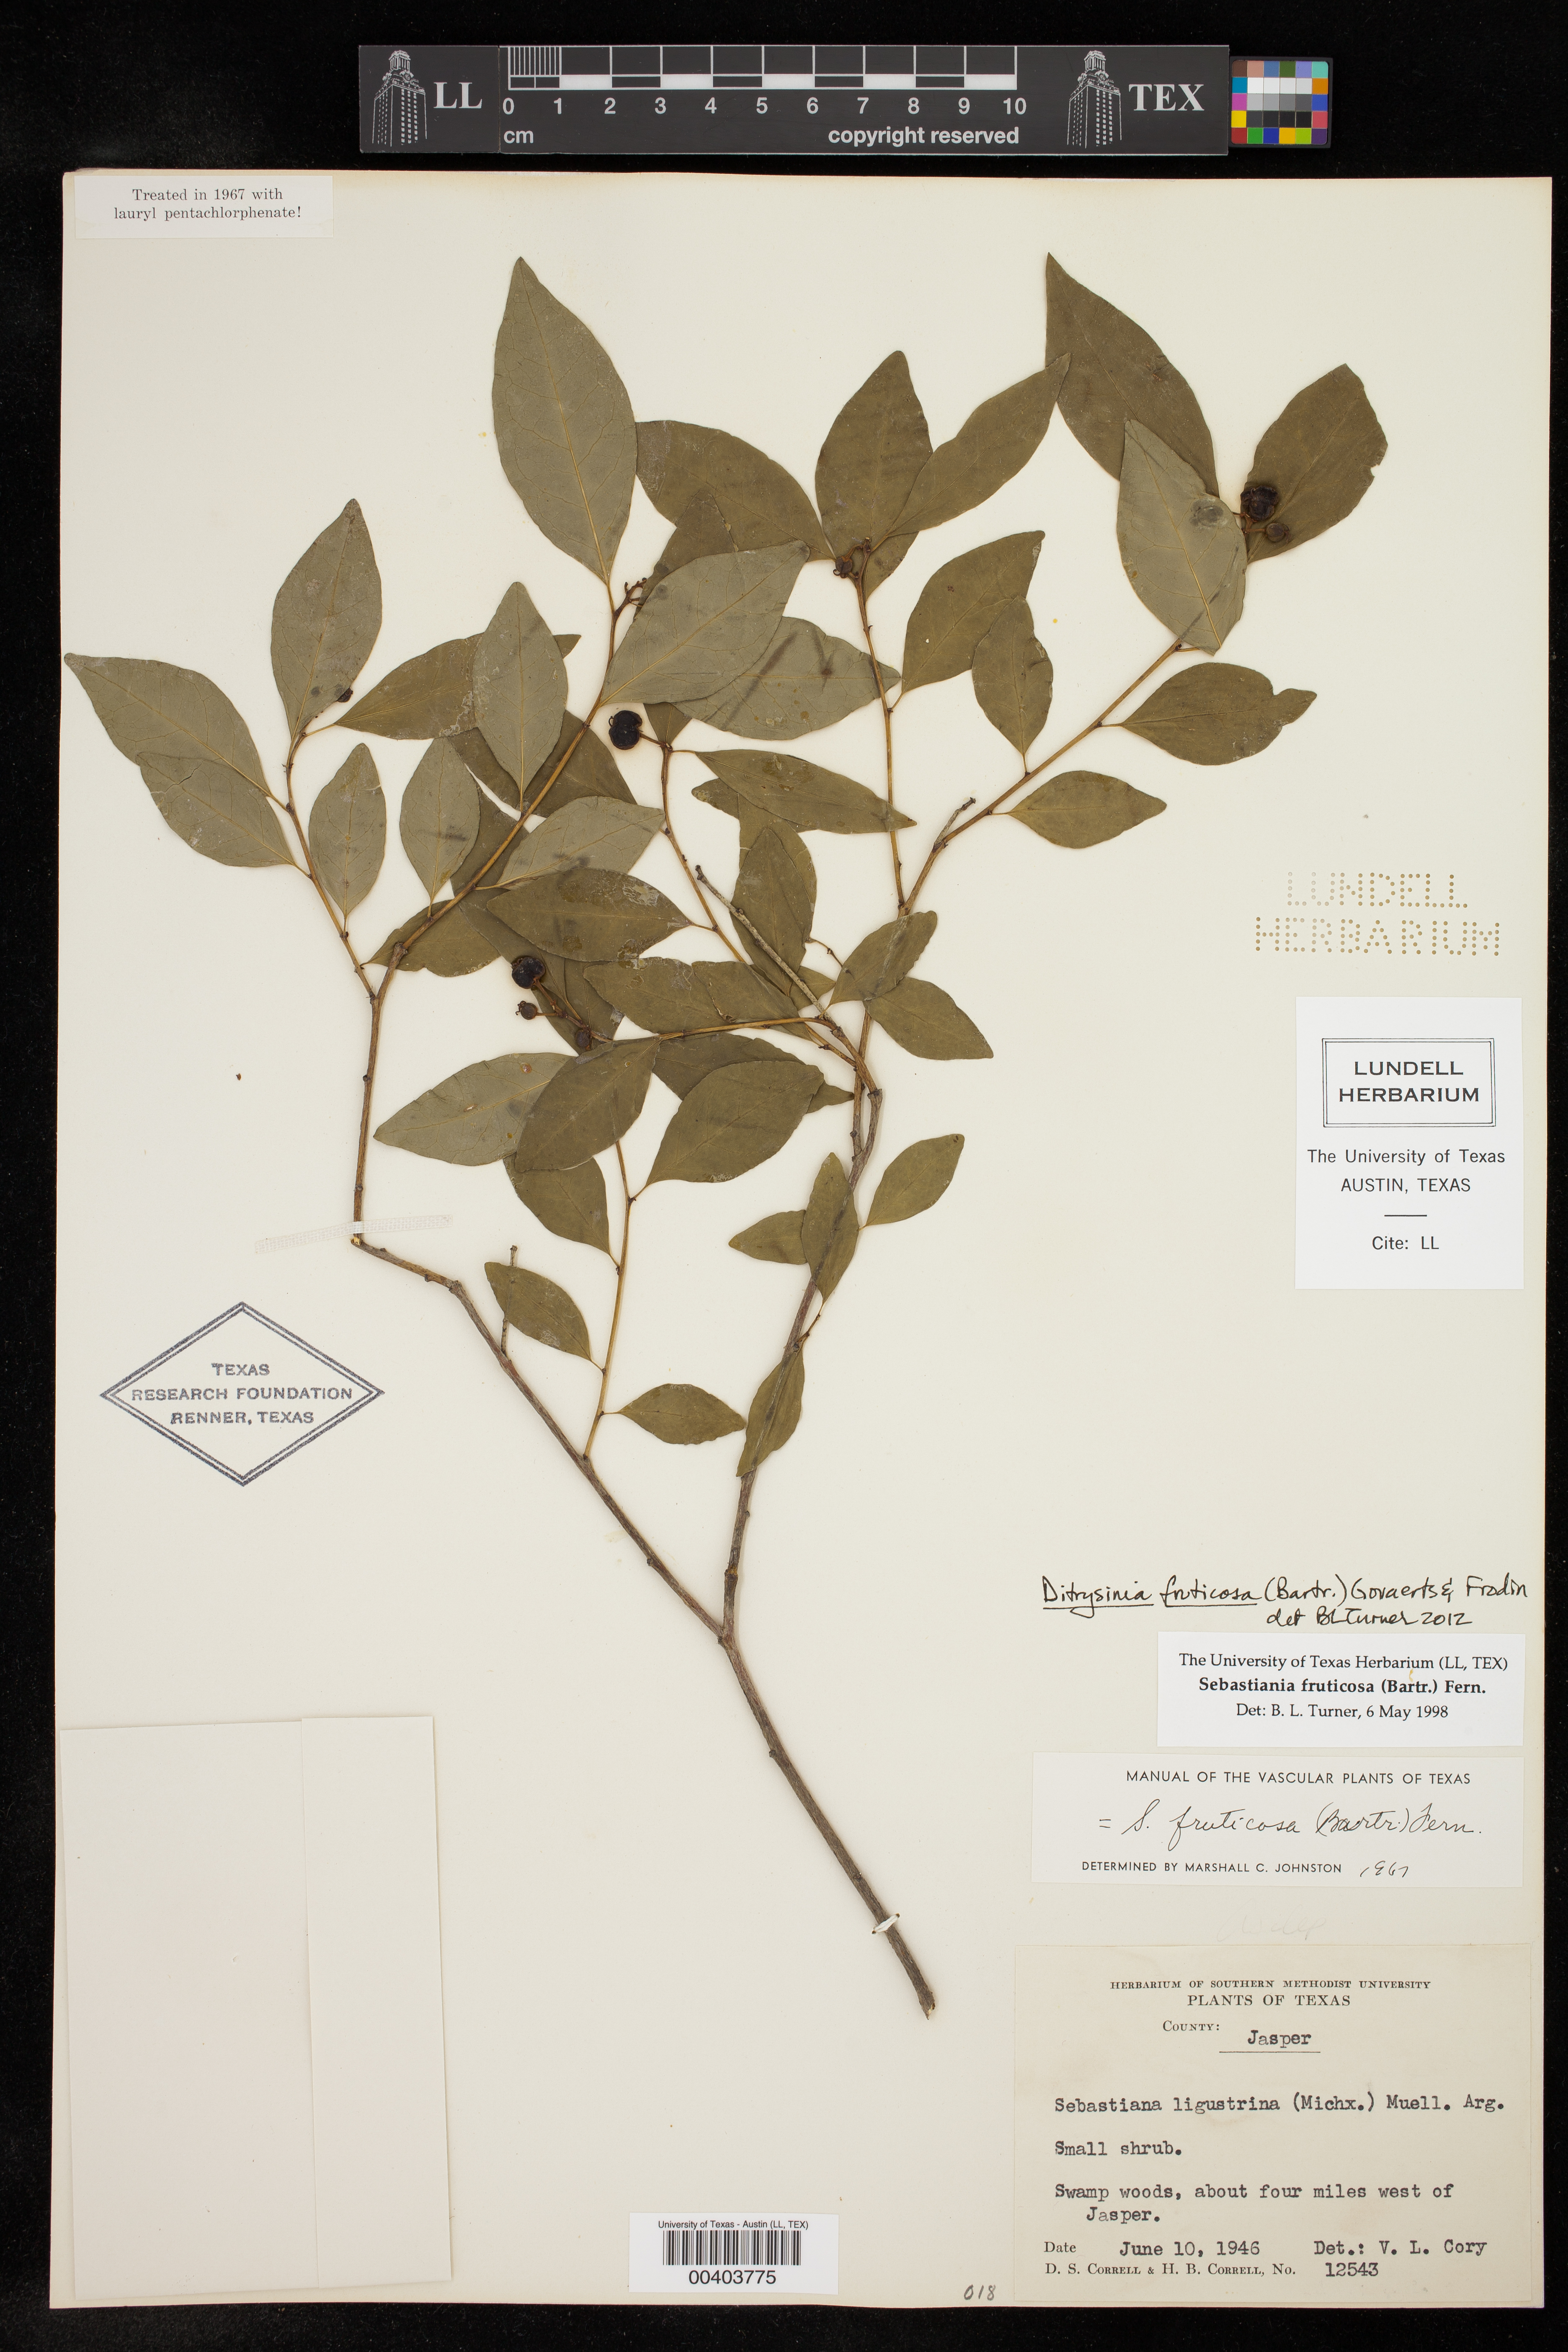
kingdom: Plantae
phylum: Tracheophyta
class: Magnoliopsida
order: Malpighiales
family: Euphorbiaceae
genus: Ditrysinia
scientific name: Ditrysinia fruticosa
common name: Gulf sebastian-bush
